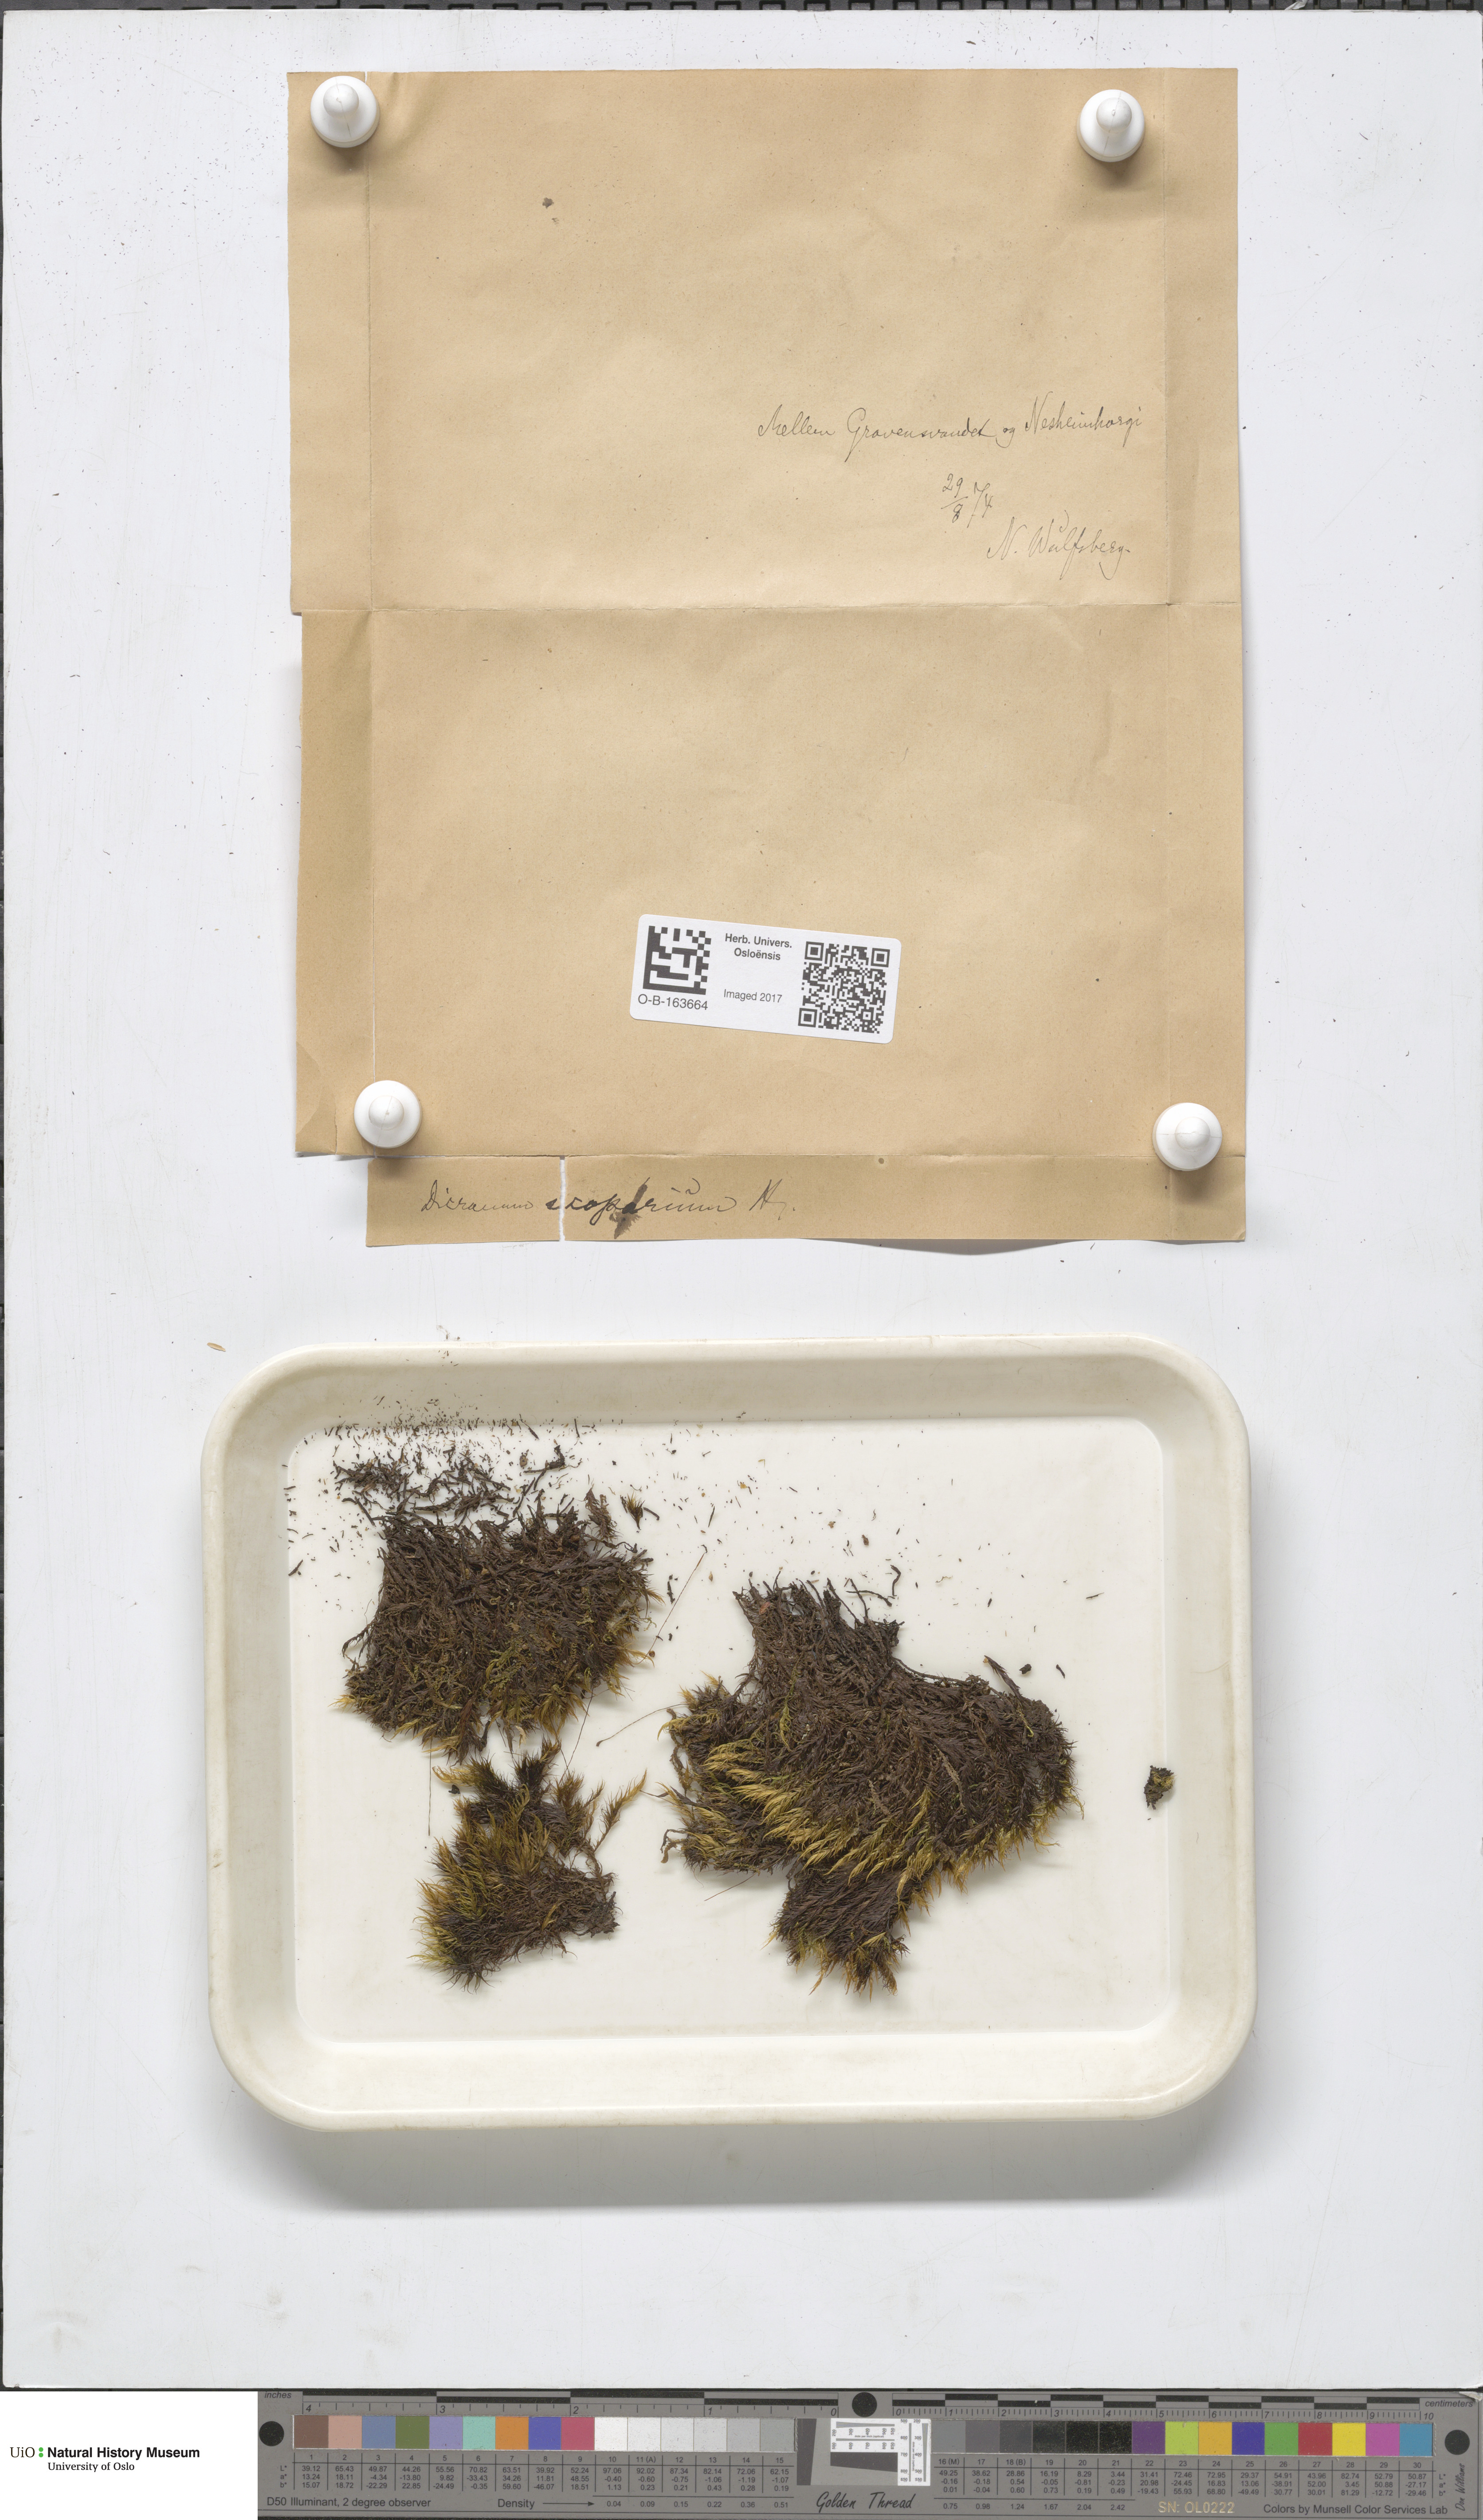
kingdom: Plantae
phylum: Bryophyta
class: Bryopsida
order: Dicranales
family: Dicranaceae
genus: Dicranum
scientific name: Dicranum scoparium
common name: Broom fork-moss
